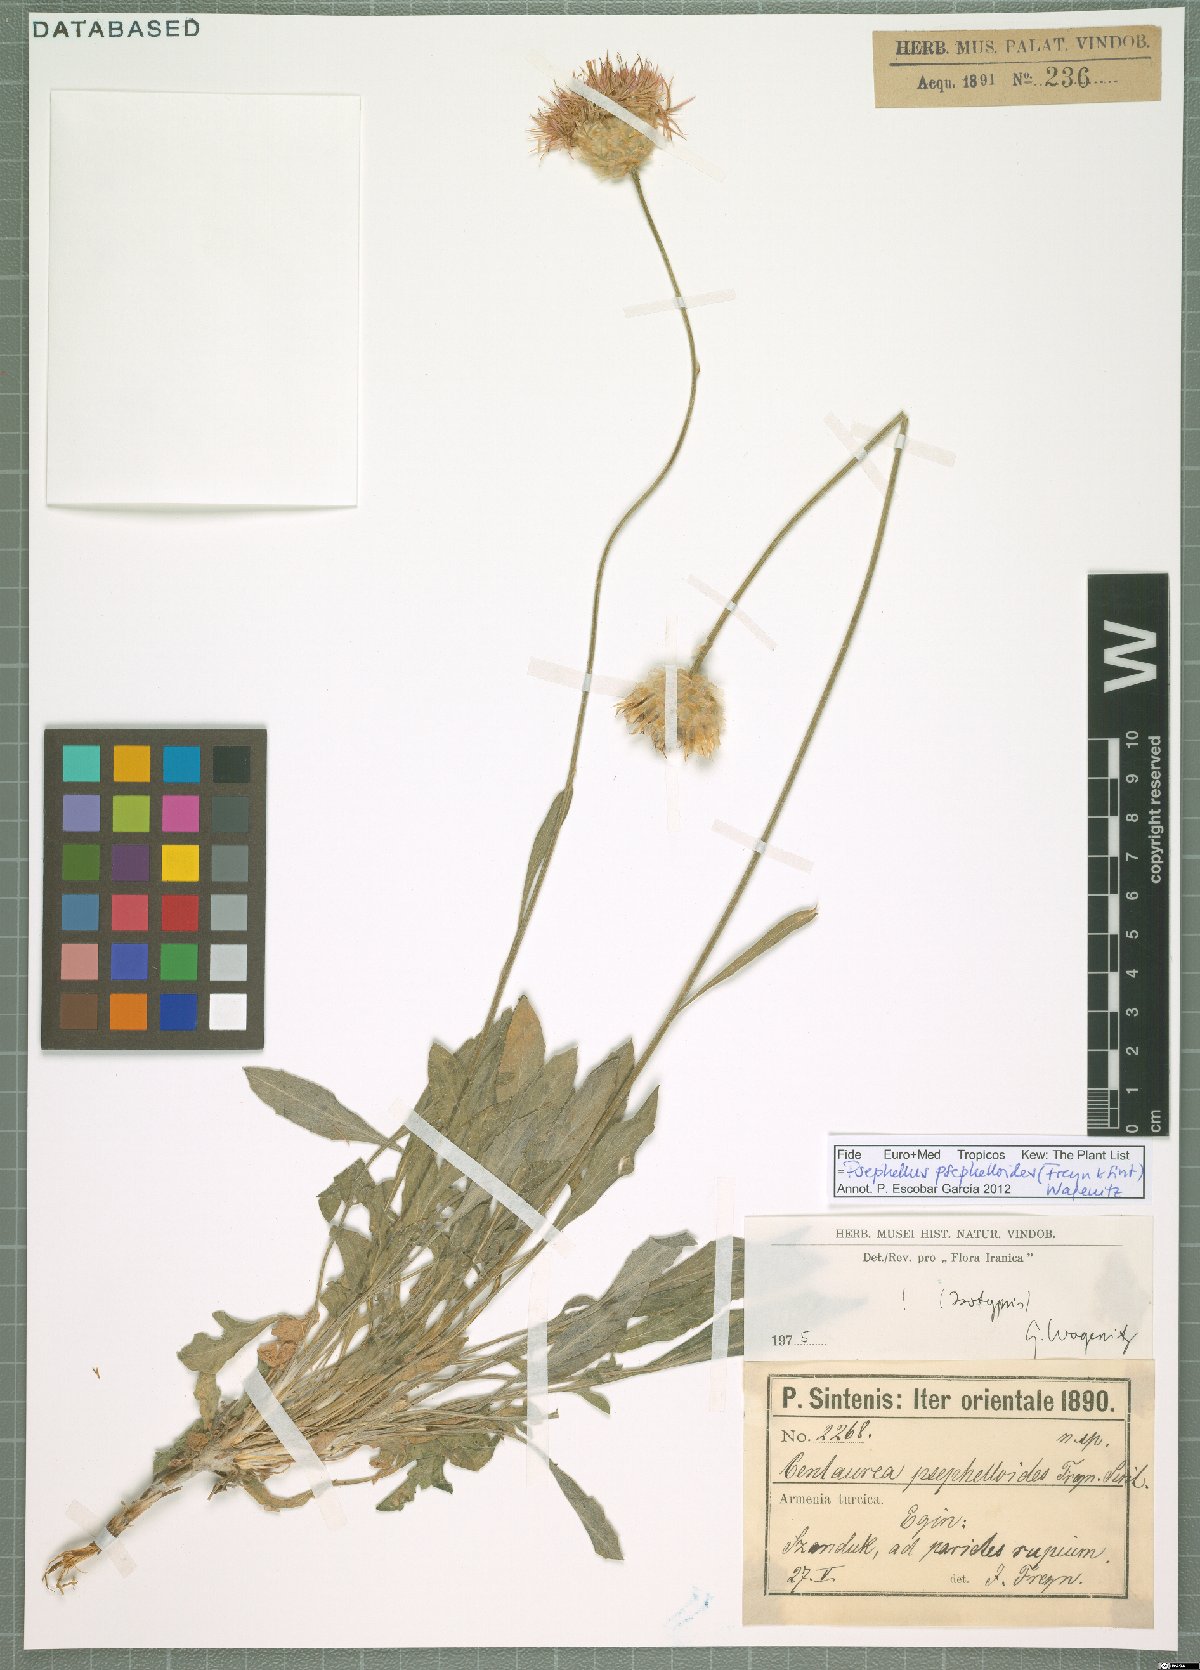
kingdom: Plantae
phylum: Tracheophyta
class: Magnoliopsida
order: Asterales
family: Asteraceae
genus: Psephellus
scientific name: Psephellus psephelloides
